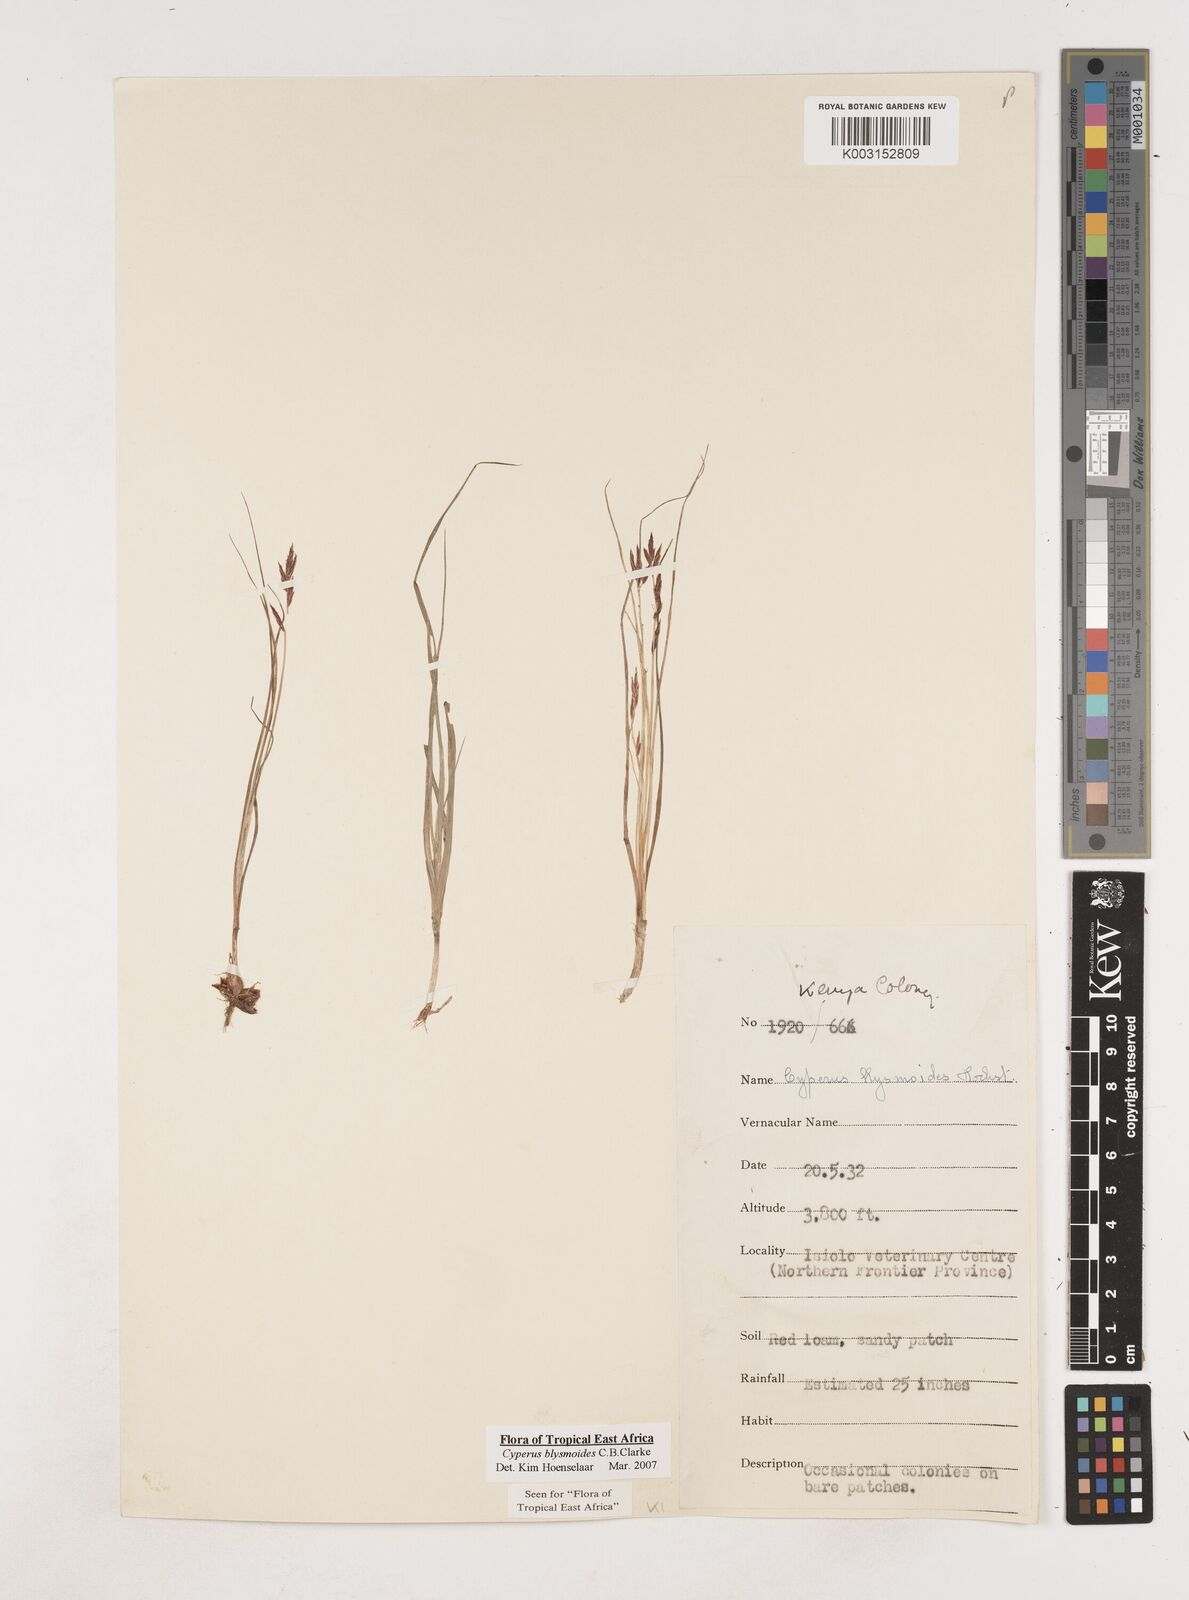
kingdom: Plantae
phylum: Tracheophyta
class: Liliopsida
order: Poales
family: Cyperaceae
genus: Cyperus
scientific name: Cyperus blysmoides
